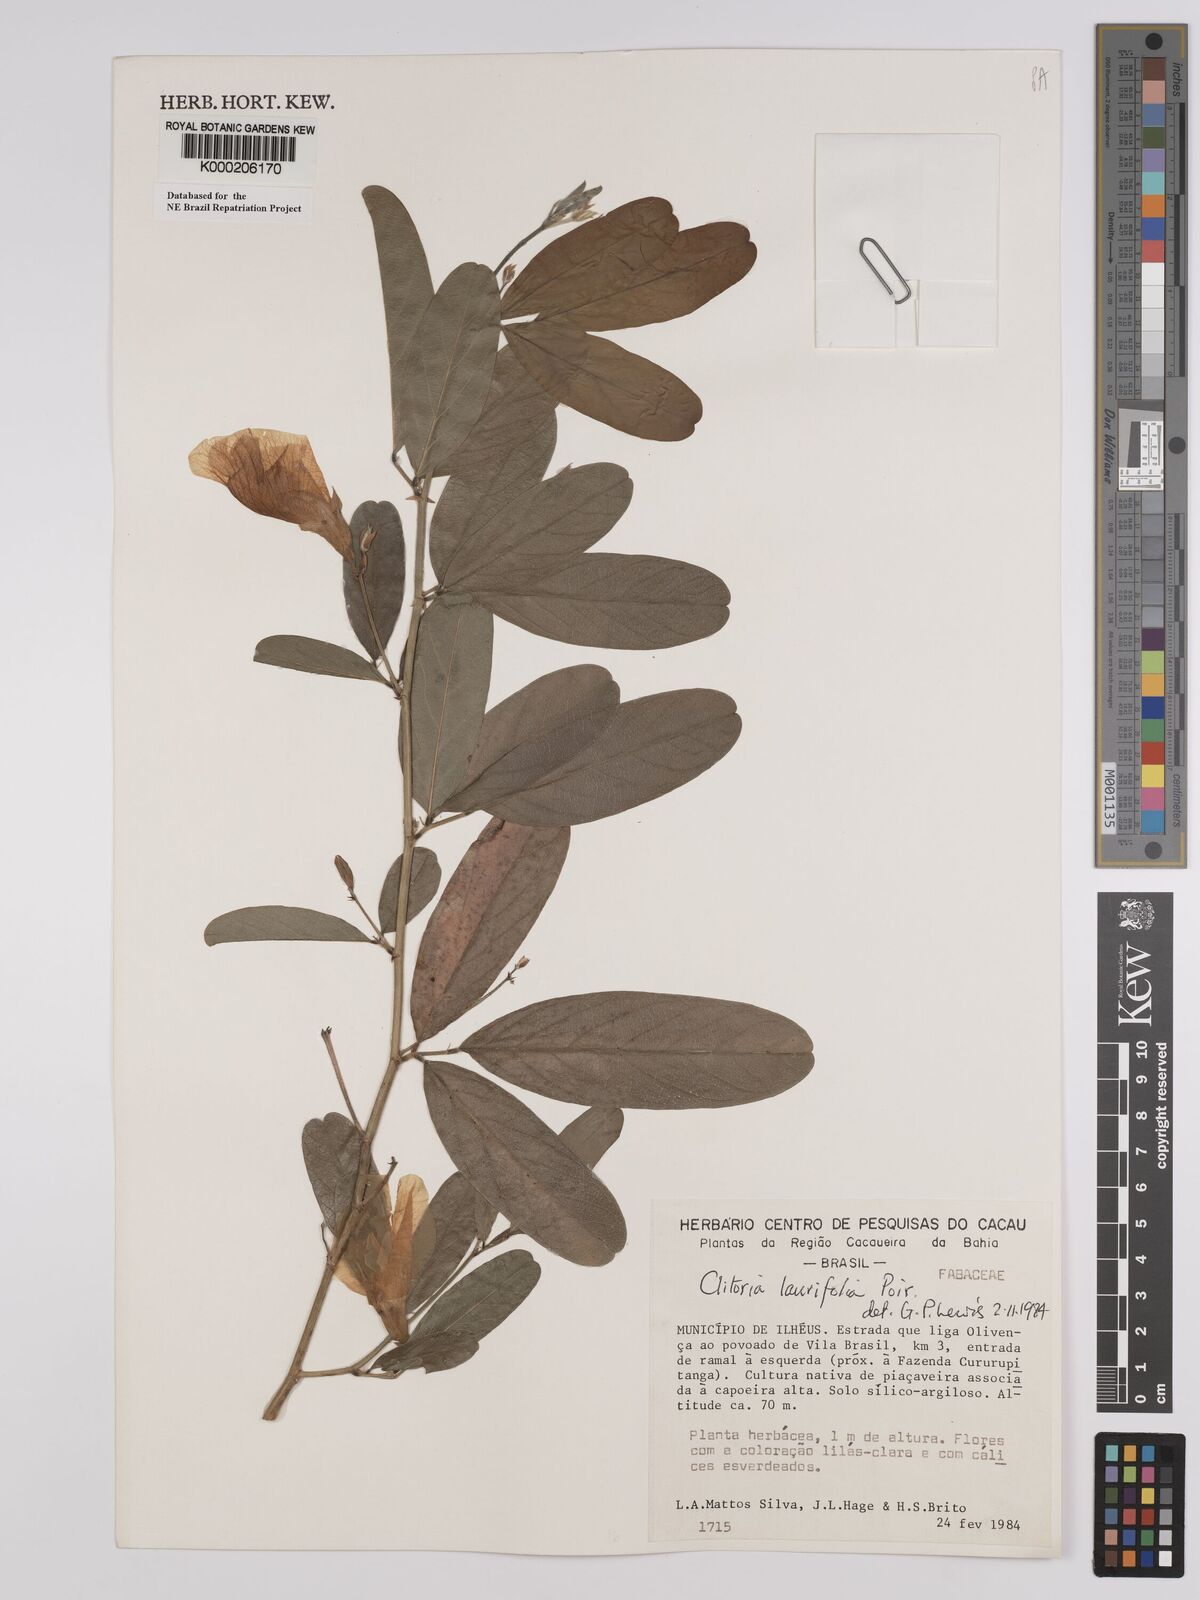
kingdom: Plantae
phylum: Tracheophyta
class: Magnoliopsida
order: Fabales
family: Fabaceae
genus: Clitoria
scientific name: Clitoria laurifolia
